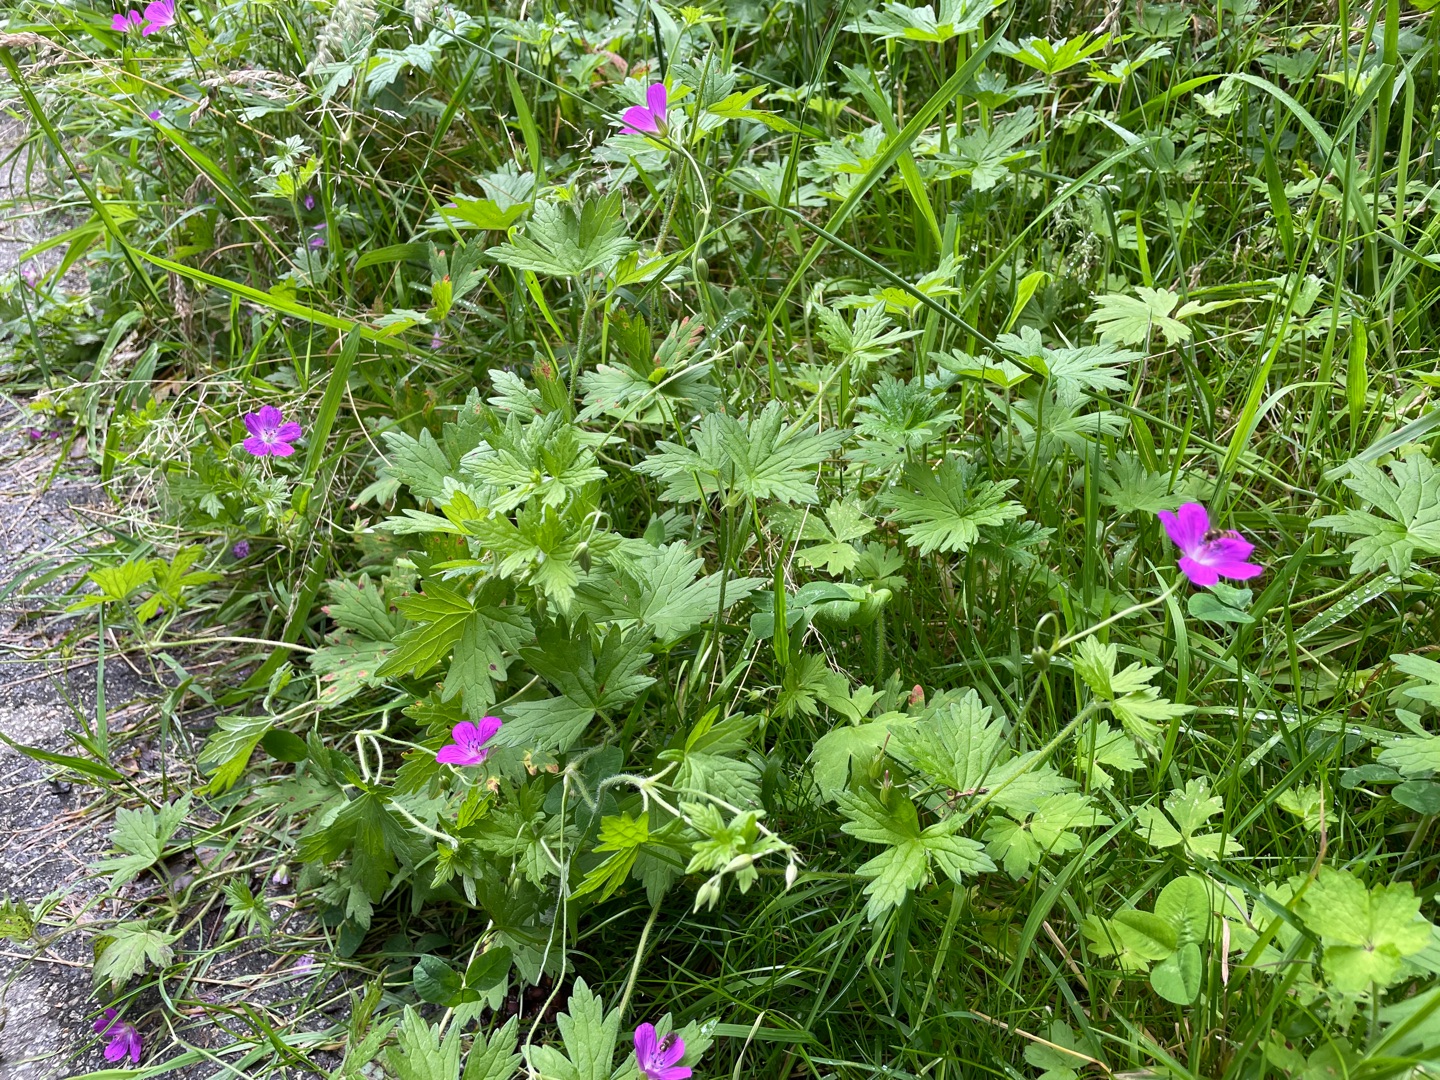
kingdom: Plantae
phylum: Tracheophyta
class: Magnoliopsida
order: Geraniales
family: Geraniaceae
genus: Geranium
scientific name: Geranium palustre
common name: Kær-storkenæb
